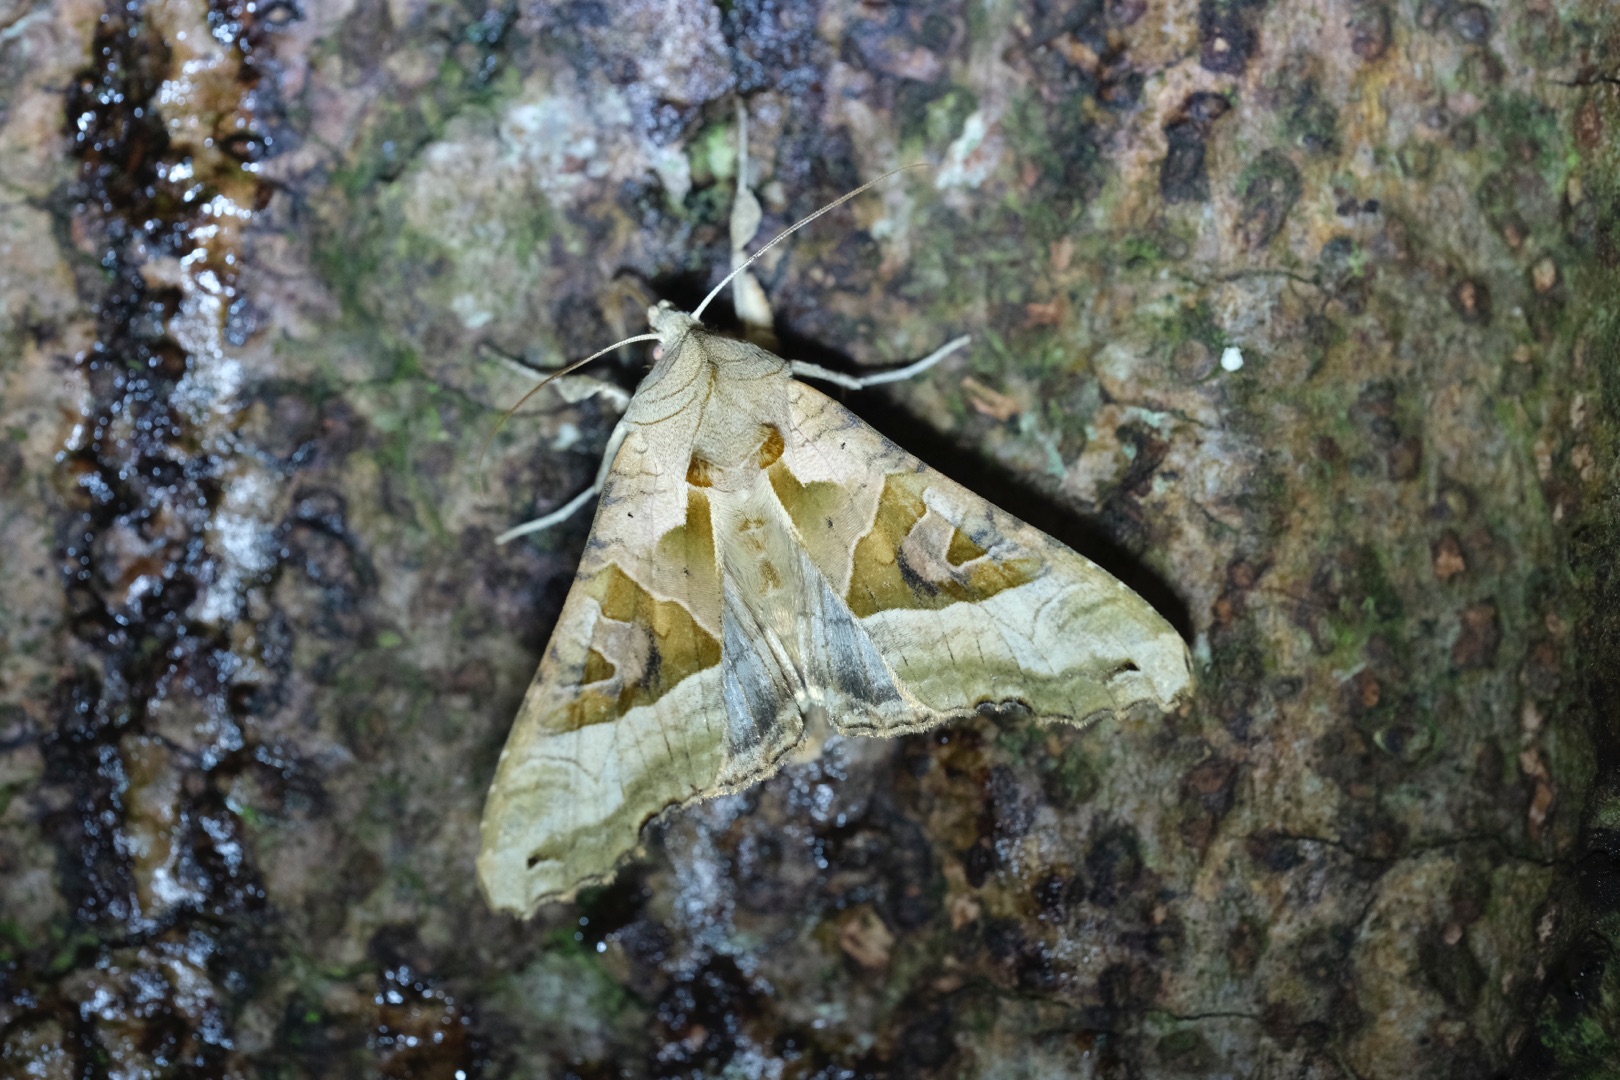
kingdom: Animalia
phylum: Arthropoda
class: Insecta
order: Lepidoptera
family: Noctuidae
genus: Phlogophora
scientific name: Phlogophora meticulosa
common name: Agatugle
